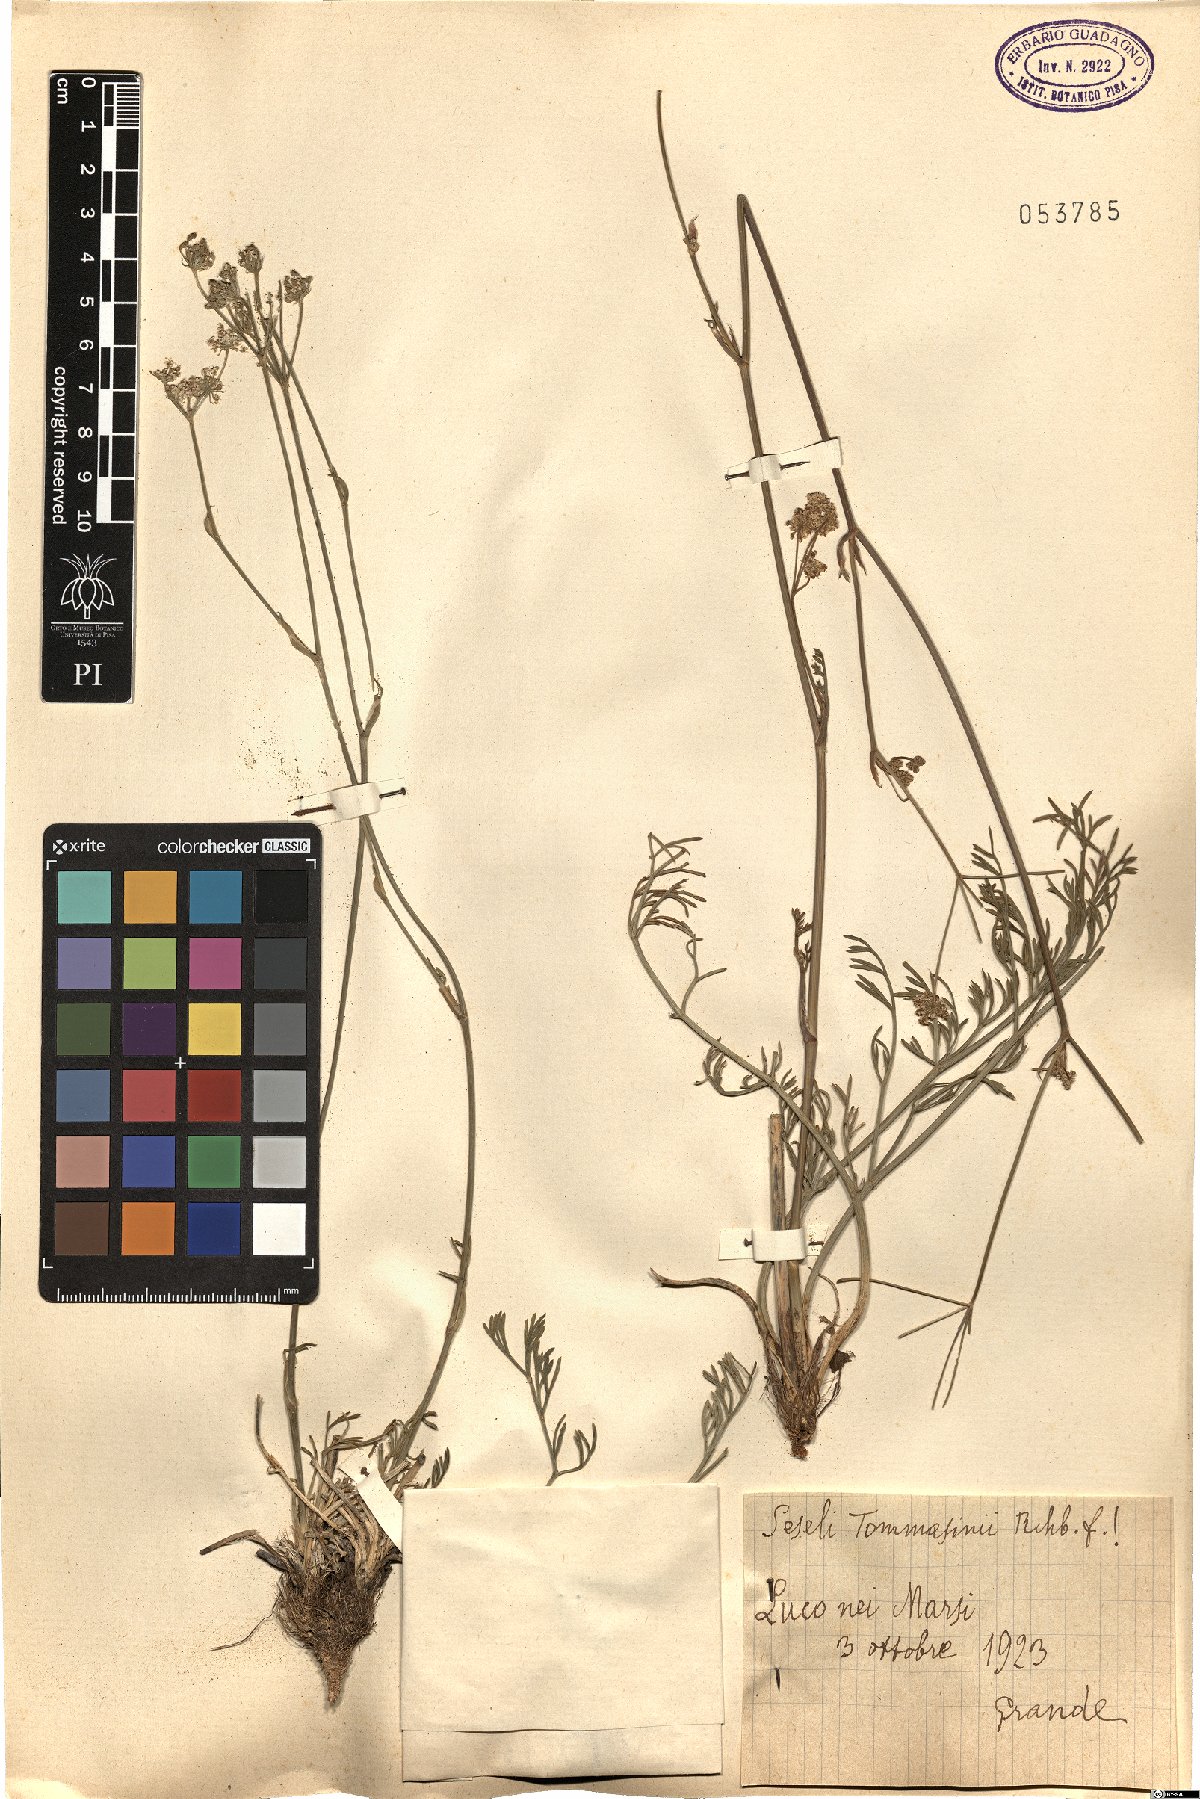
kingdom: Plantae
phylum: Tracheophyta
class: Magnoliopsida
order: Apiales
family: Apiaceae
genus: Seseli
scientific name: Seseli montanum
